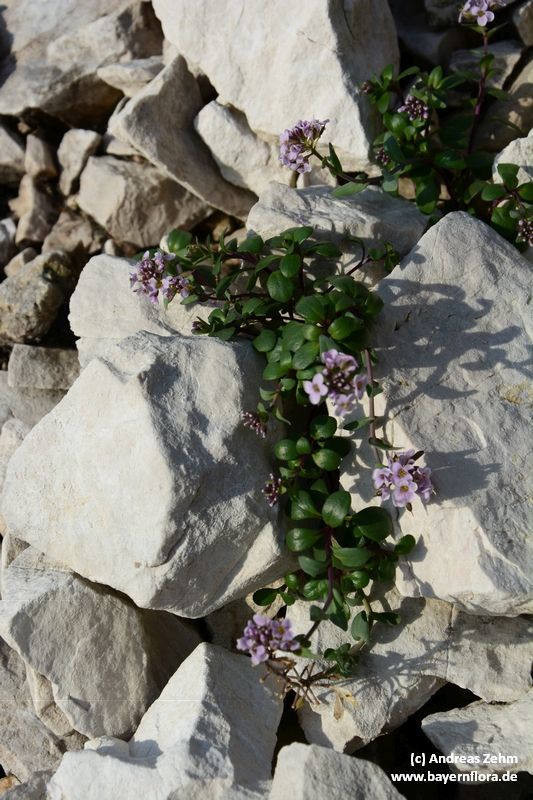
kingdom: Plantae
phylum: Tracheophyta
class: Magnoliopsida
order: Brassicales
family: Brassicaceae
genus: Noccaea
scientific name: Noccaea rotundifolia
